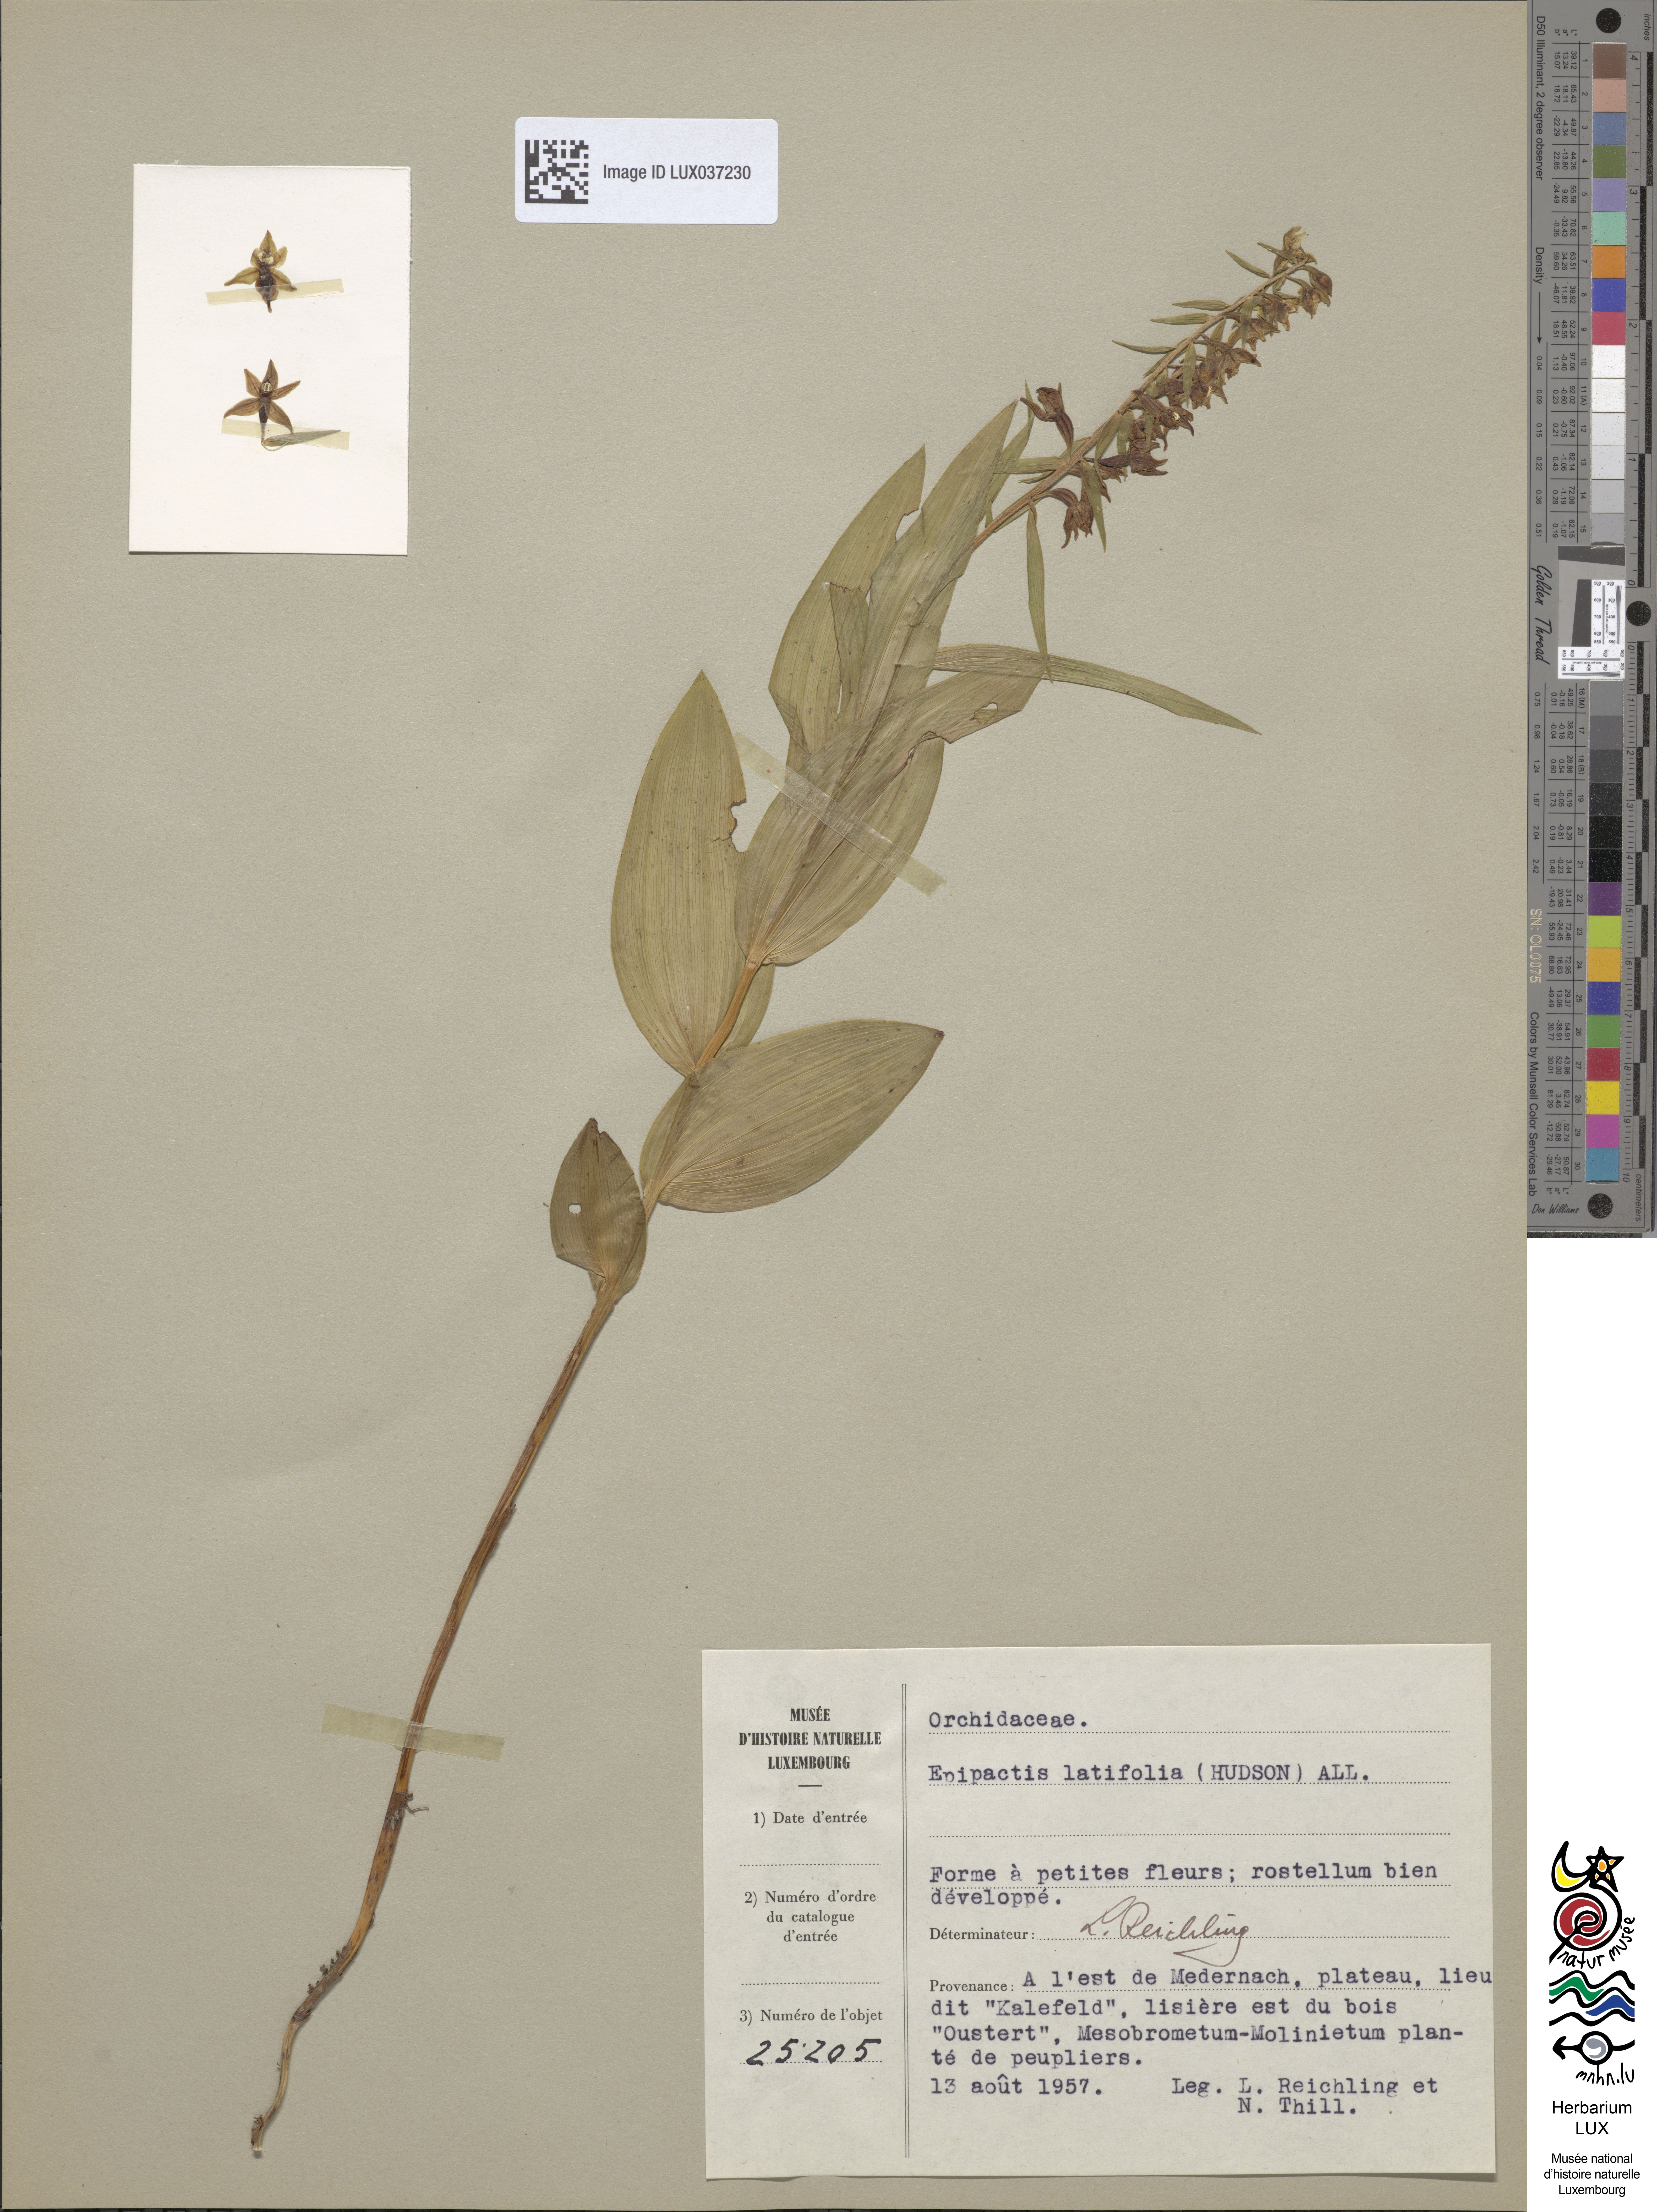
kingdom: Plantae
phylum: Tracheophyta
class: Liliopsida
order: Asparagales
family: Orchidaceae
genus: Epipactis
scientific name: Epipactis helleborine
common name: Broad-leaved helleborine
